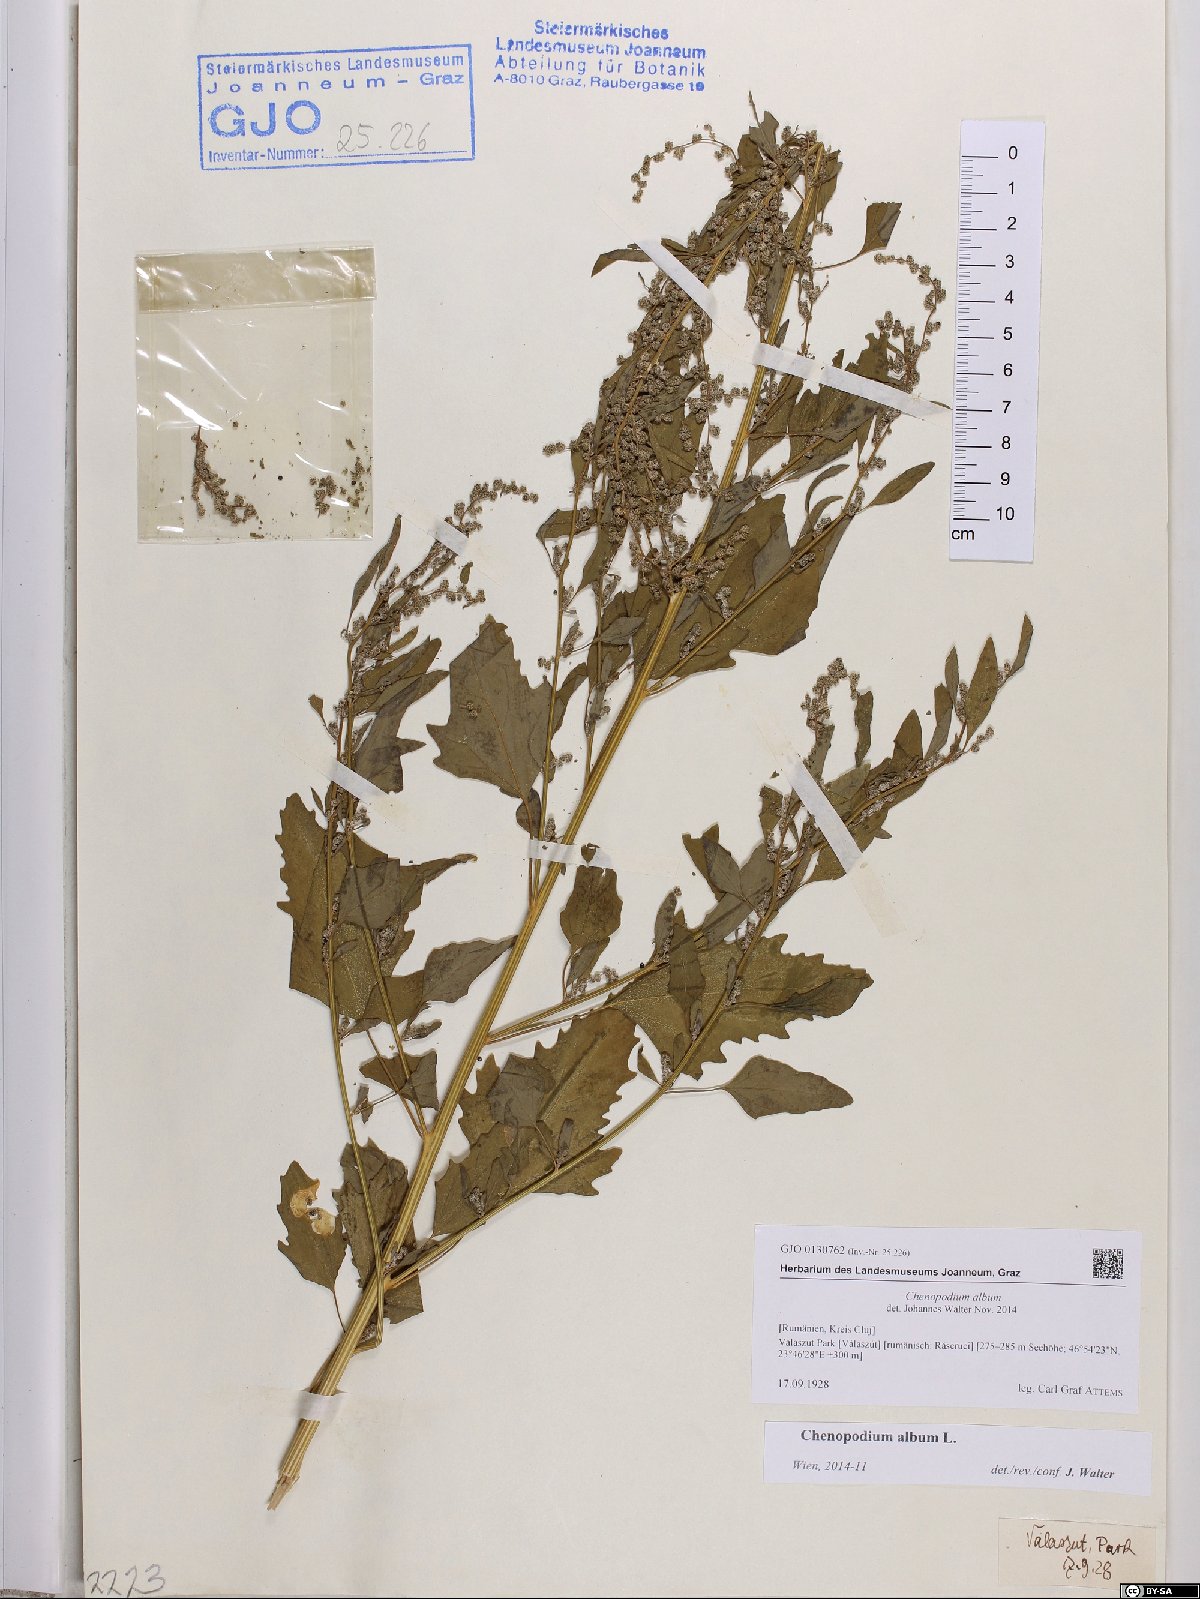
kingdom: Plantae
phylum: Tracheophyta
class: Magnoliopsida
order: Caryophyllales
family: Amaranthaceae
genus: Chenopodium
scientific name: Chenopodium album
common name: Fat-hen
